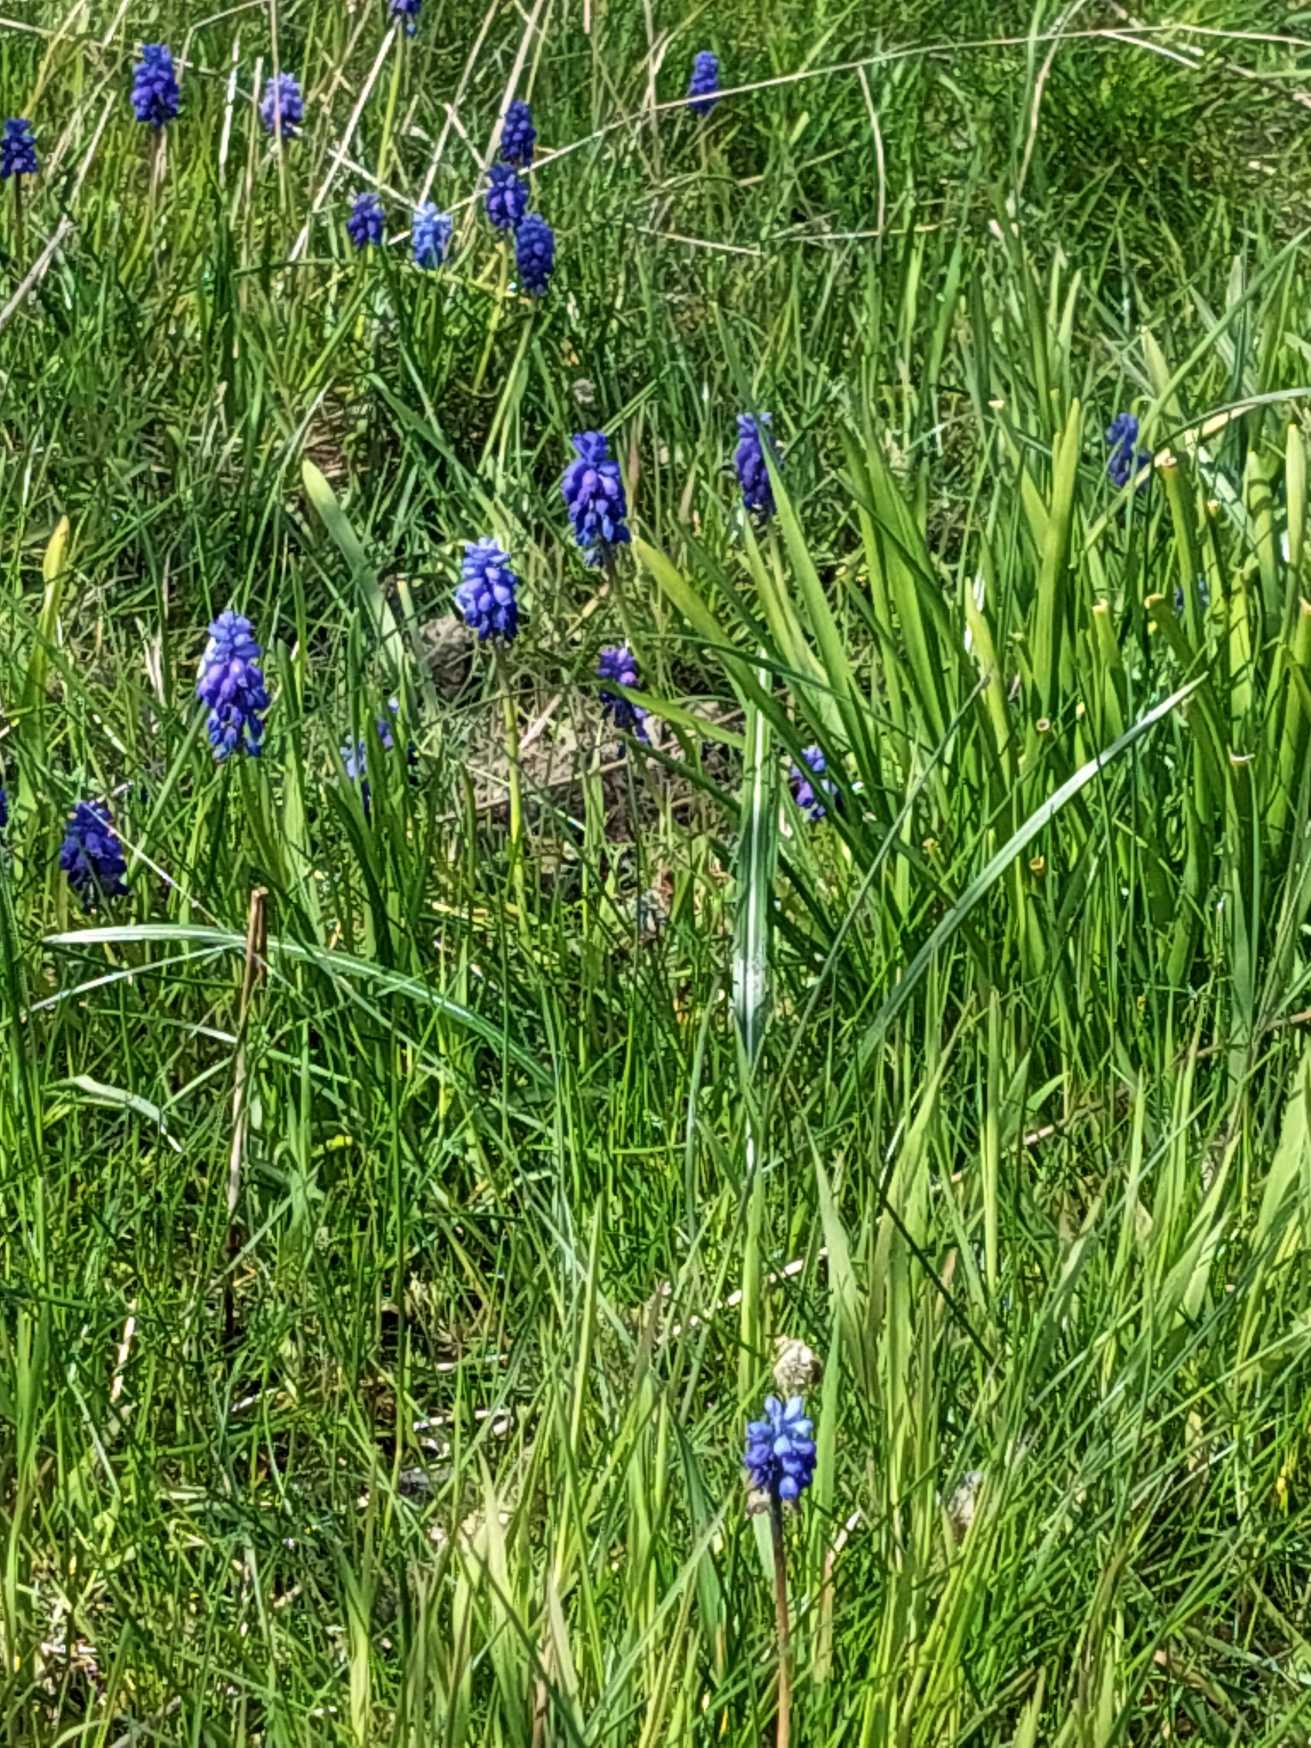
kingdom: Plantae
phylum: Tracheophyta
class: Liliopsida
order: Asparagales
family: Asparagaceae
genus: Muscari
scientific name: Muscari armeniacum
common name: Armensk perlehyacint
